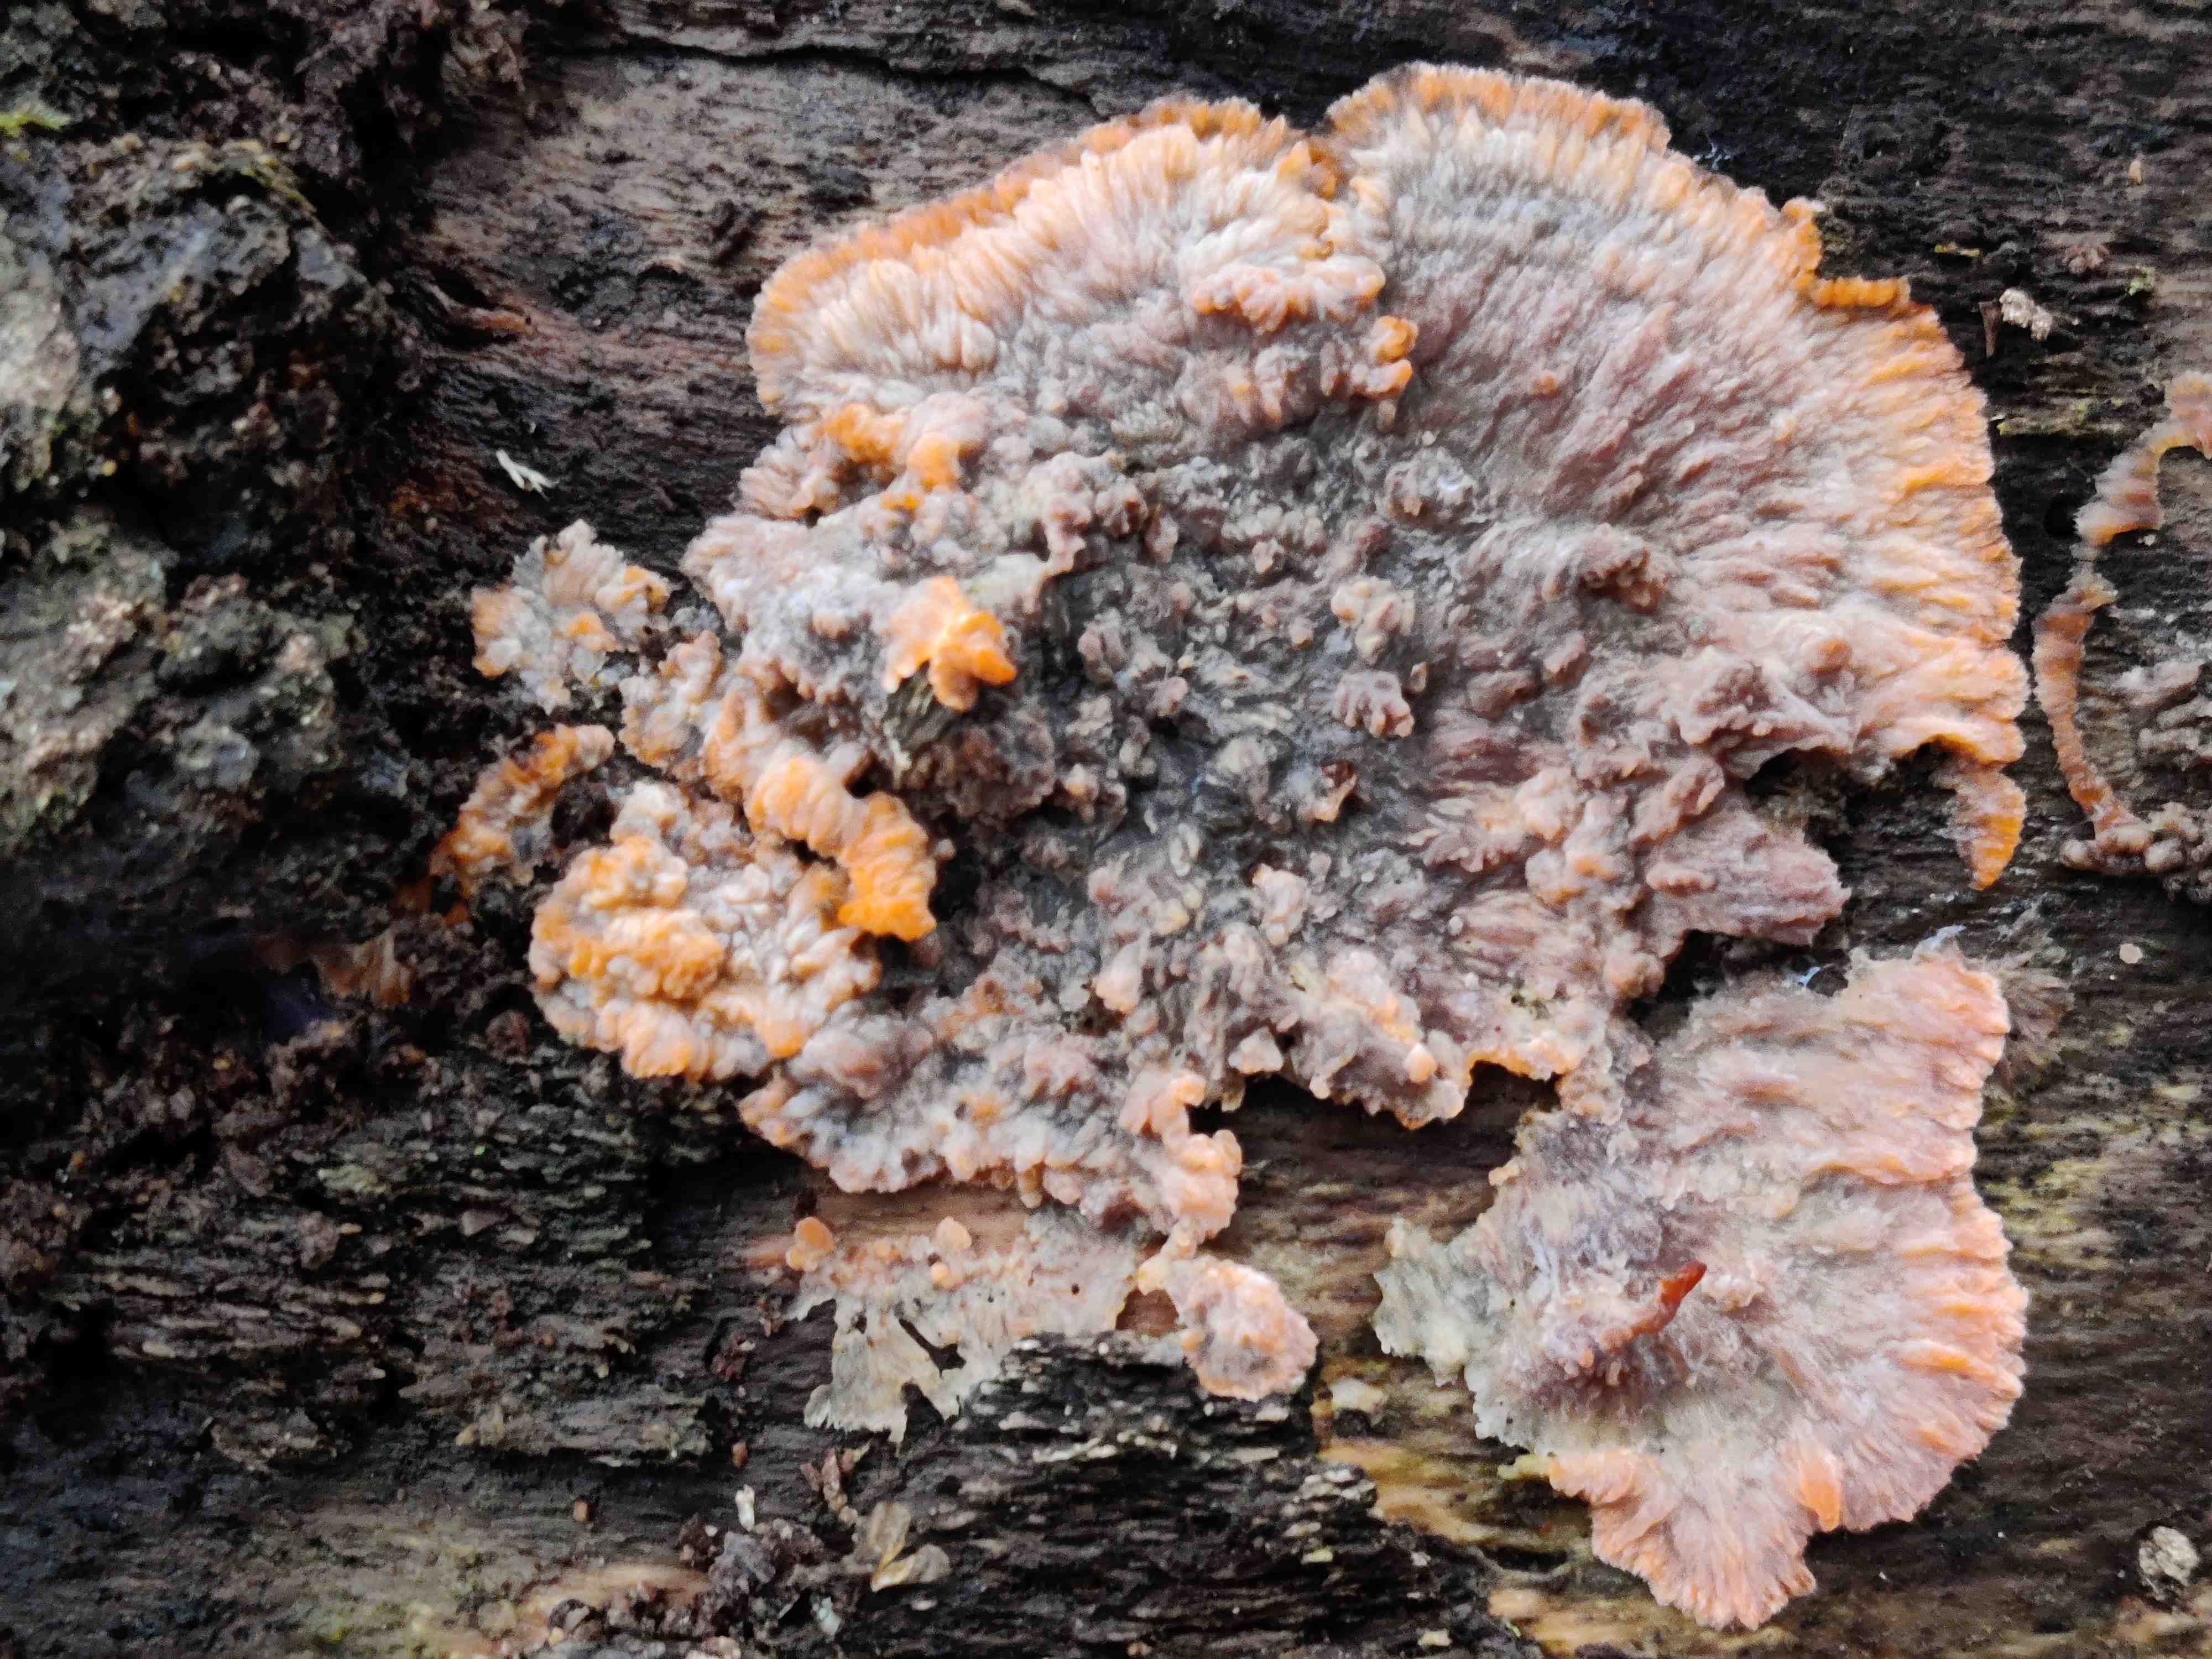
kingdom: Fungi
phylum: Basidiomycota
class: Agaricomycetes
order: Polyporales
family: Meruliaceae
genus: Phlebia
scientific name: Phlebia radiata
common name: stråle-åresvamp
